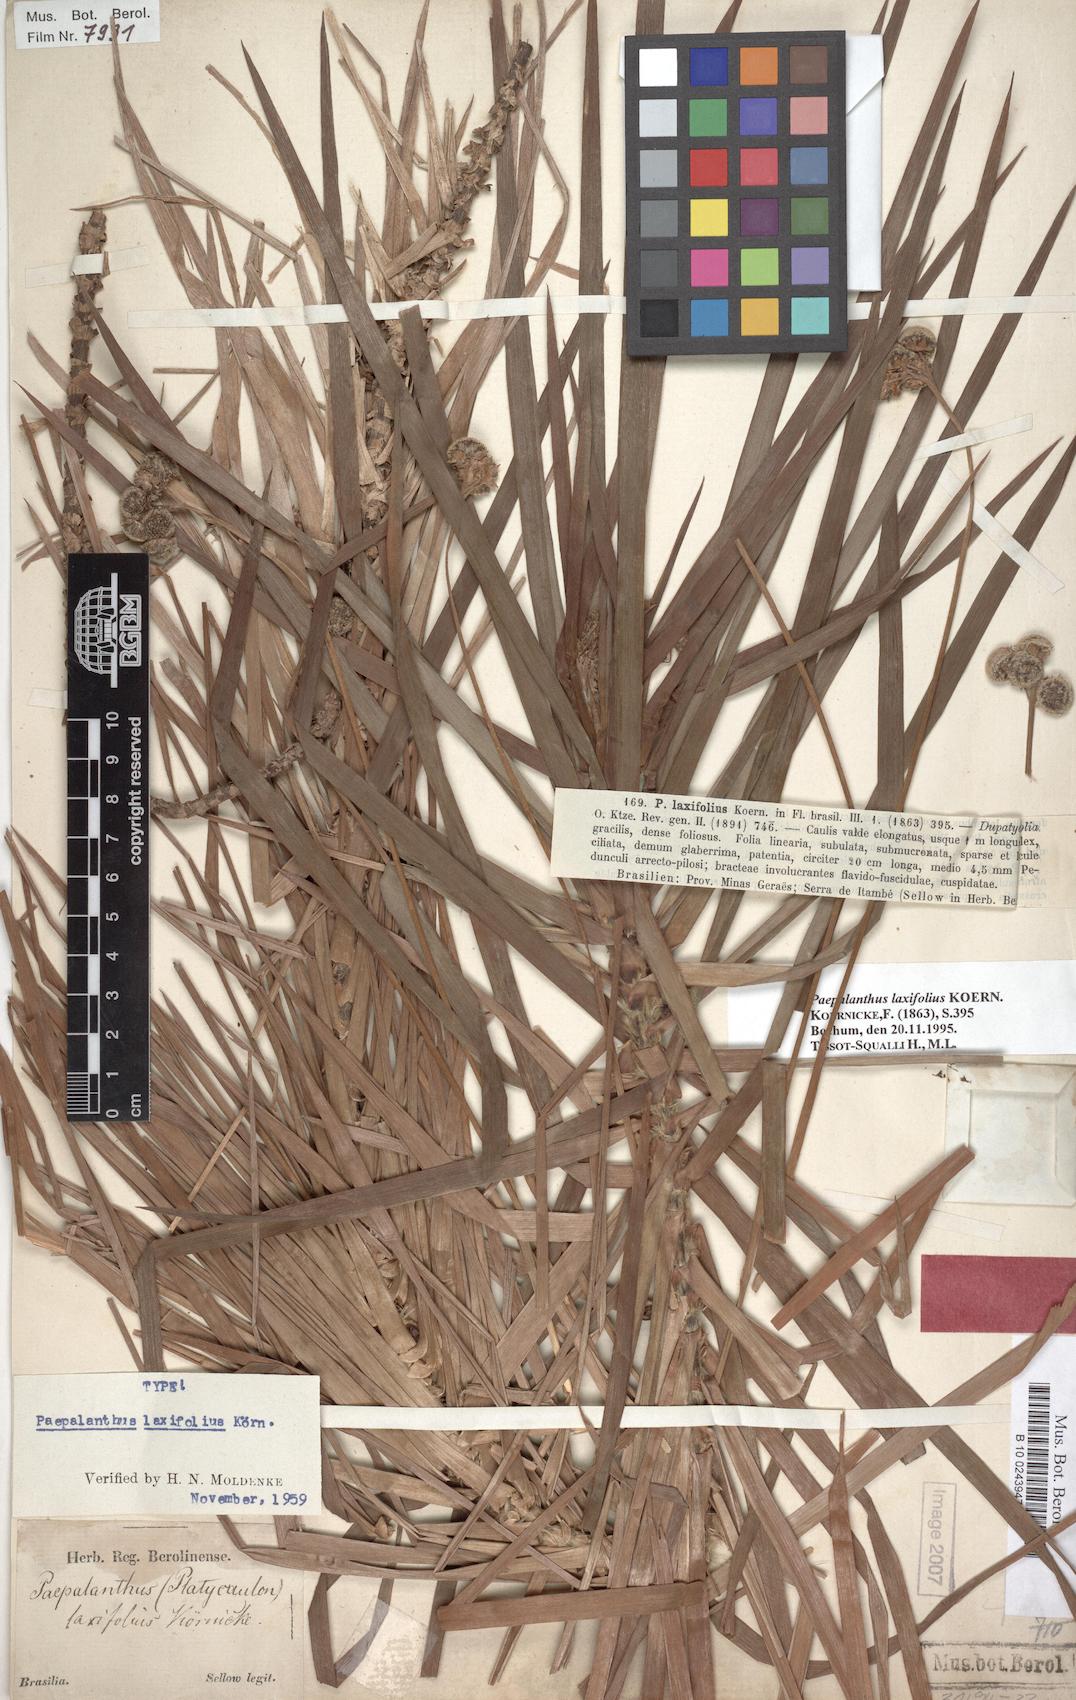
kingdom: Plantae
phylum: Tracheophyta
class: Liliopsida
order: Poales
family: Eriocaulaceae
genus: Paepalanthus
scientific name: Paepalanthus laxifolius
